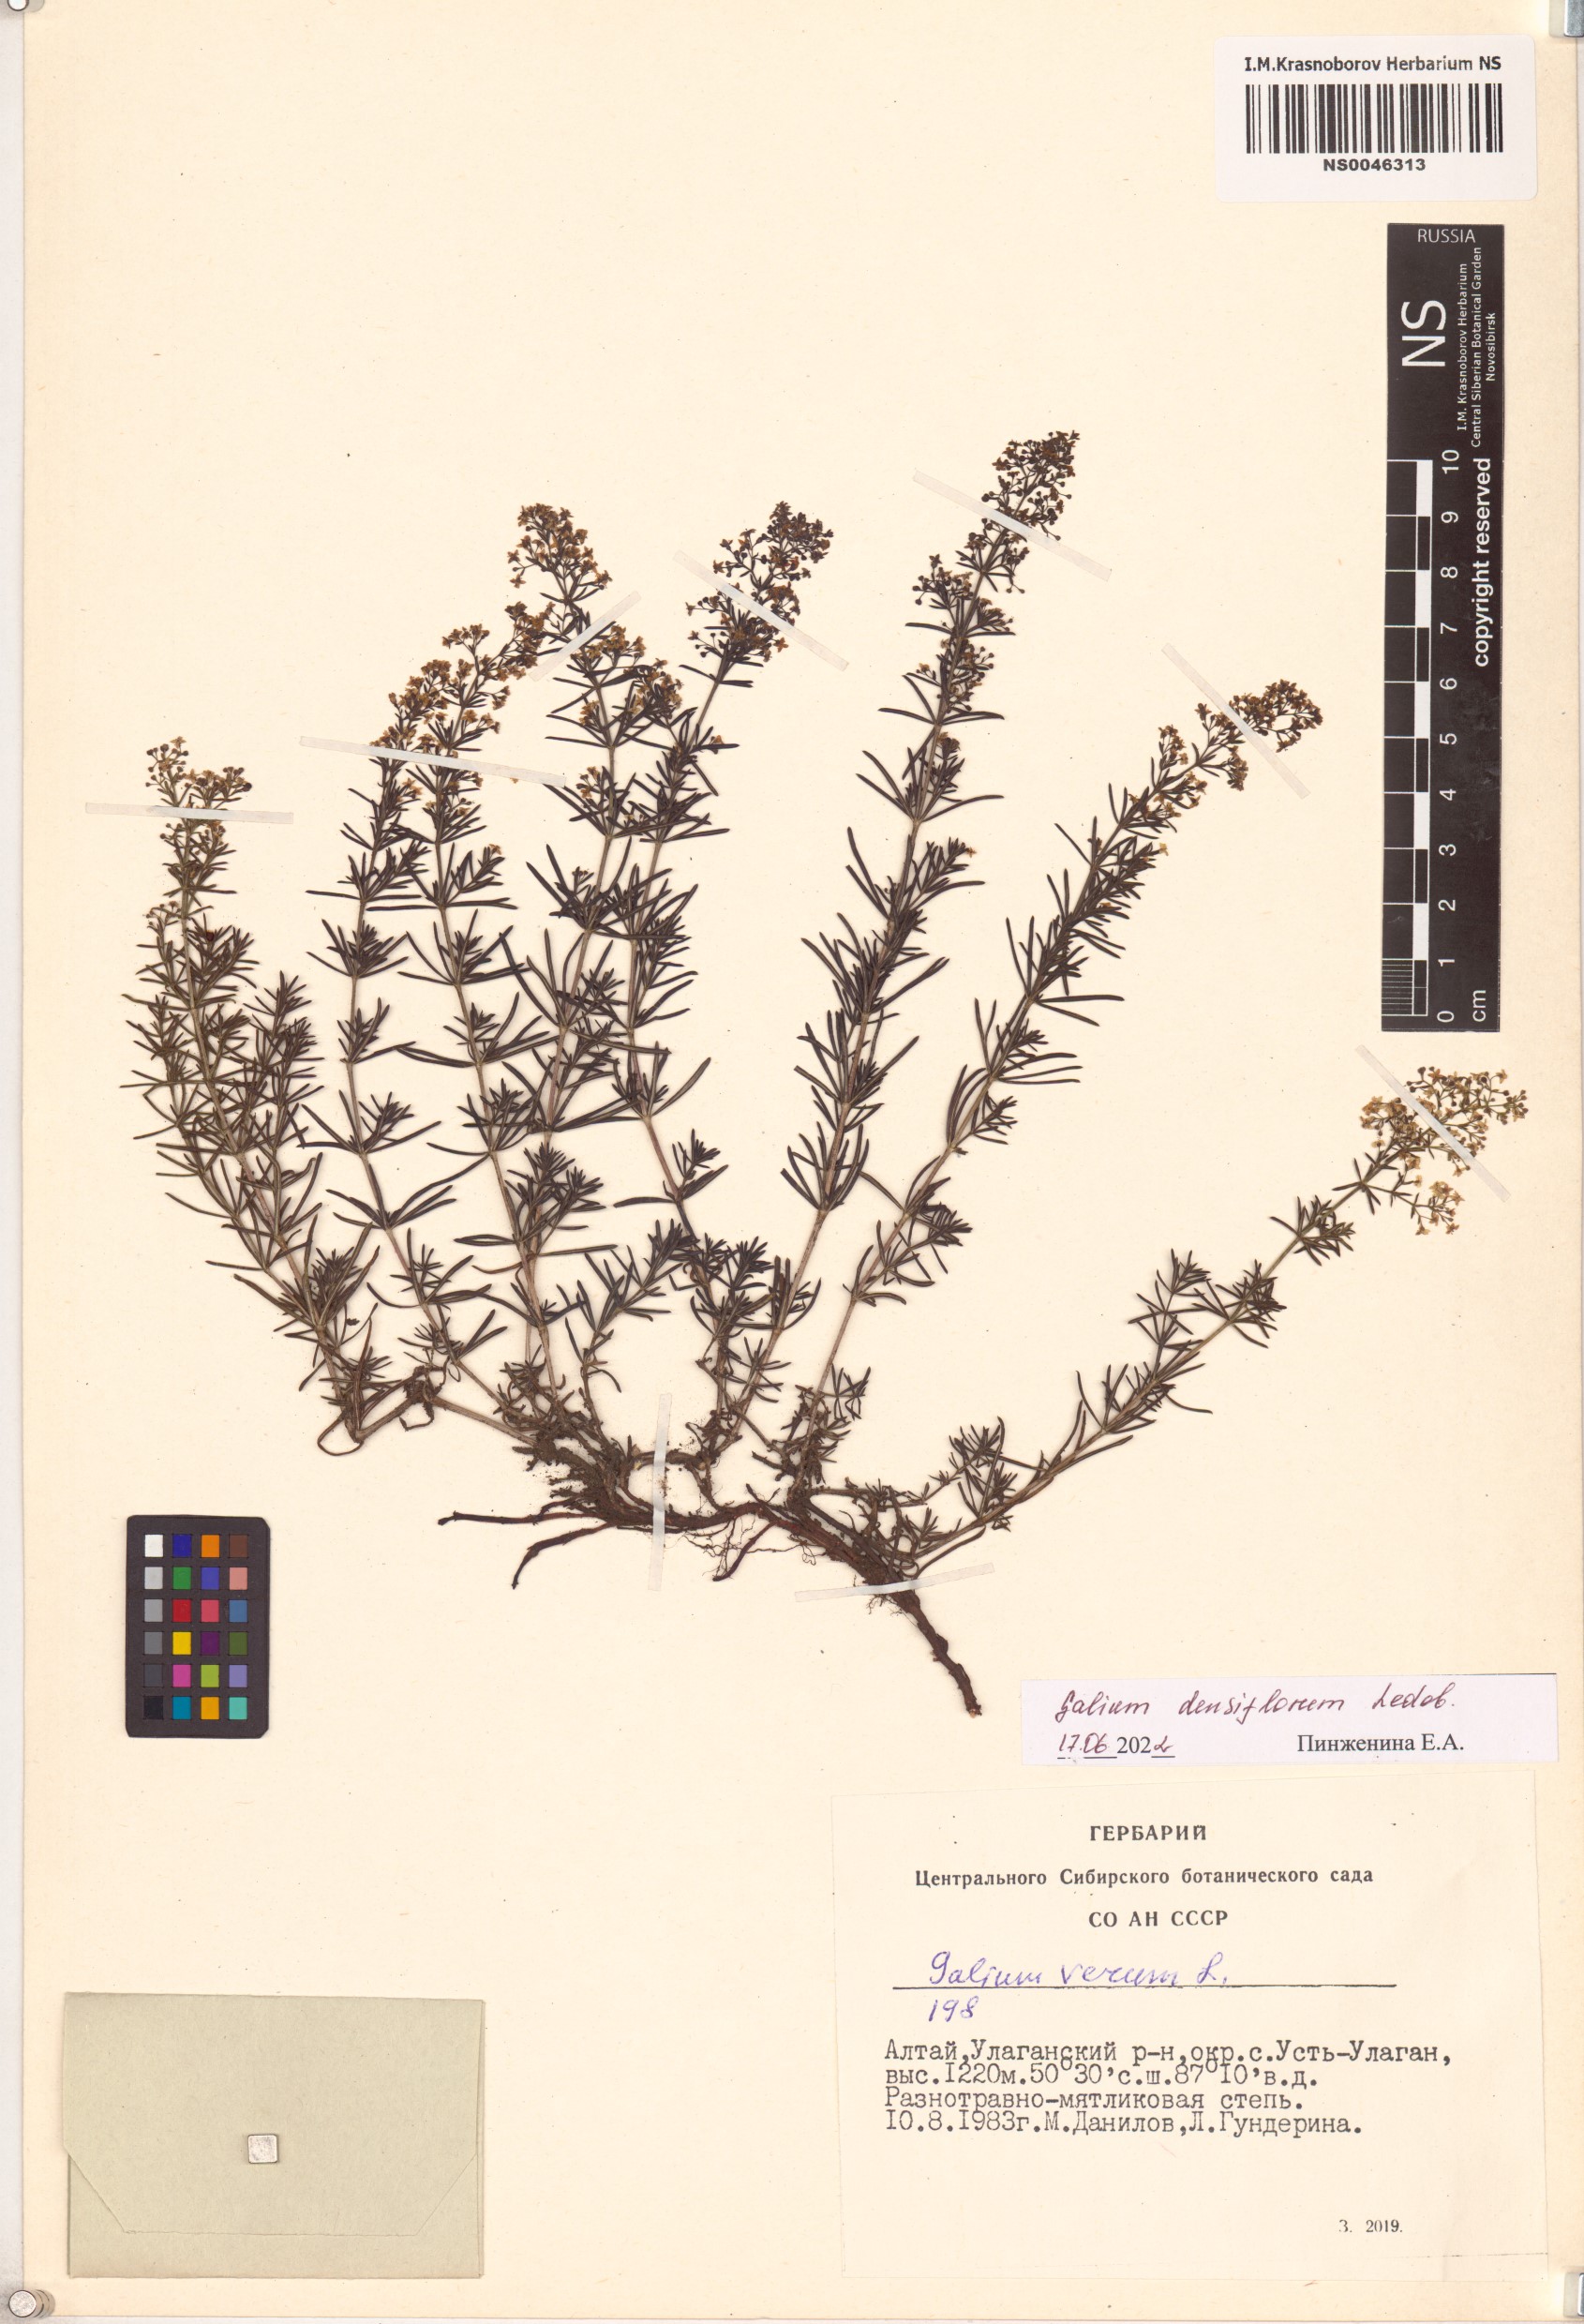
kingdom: Plantae
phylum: Tracheophyta
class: Magnoliopsida
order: Gentianales
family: Rubiaceae
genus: Galium
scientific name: Galium densiflorum
